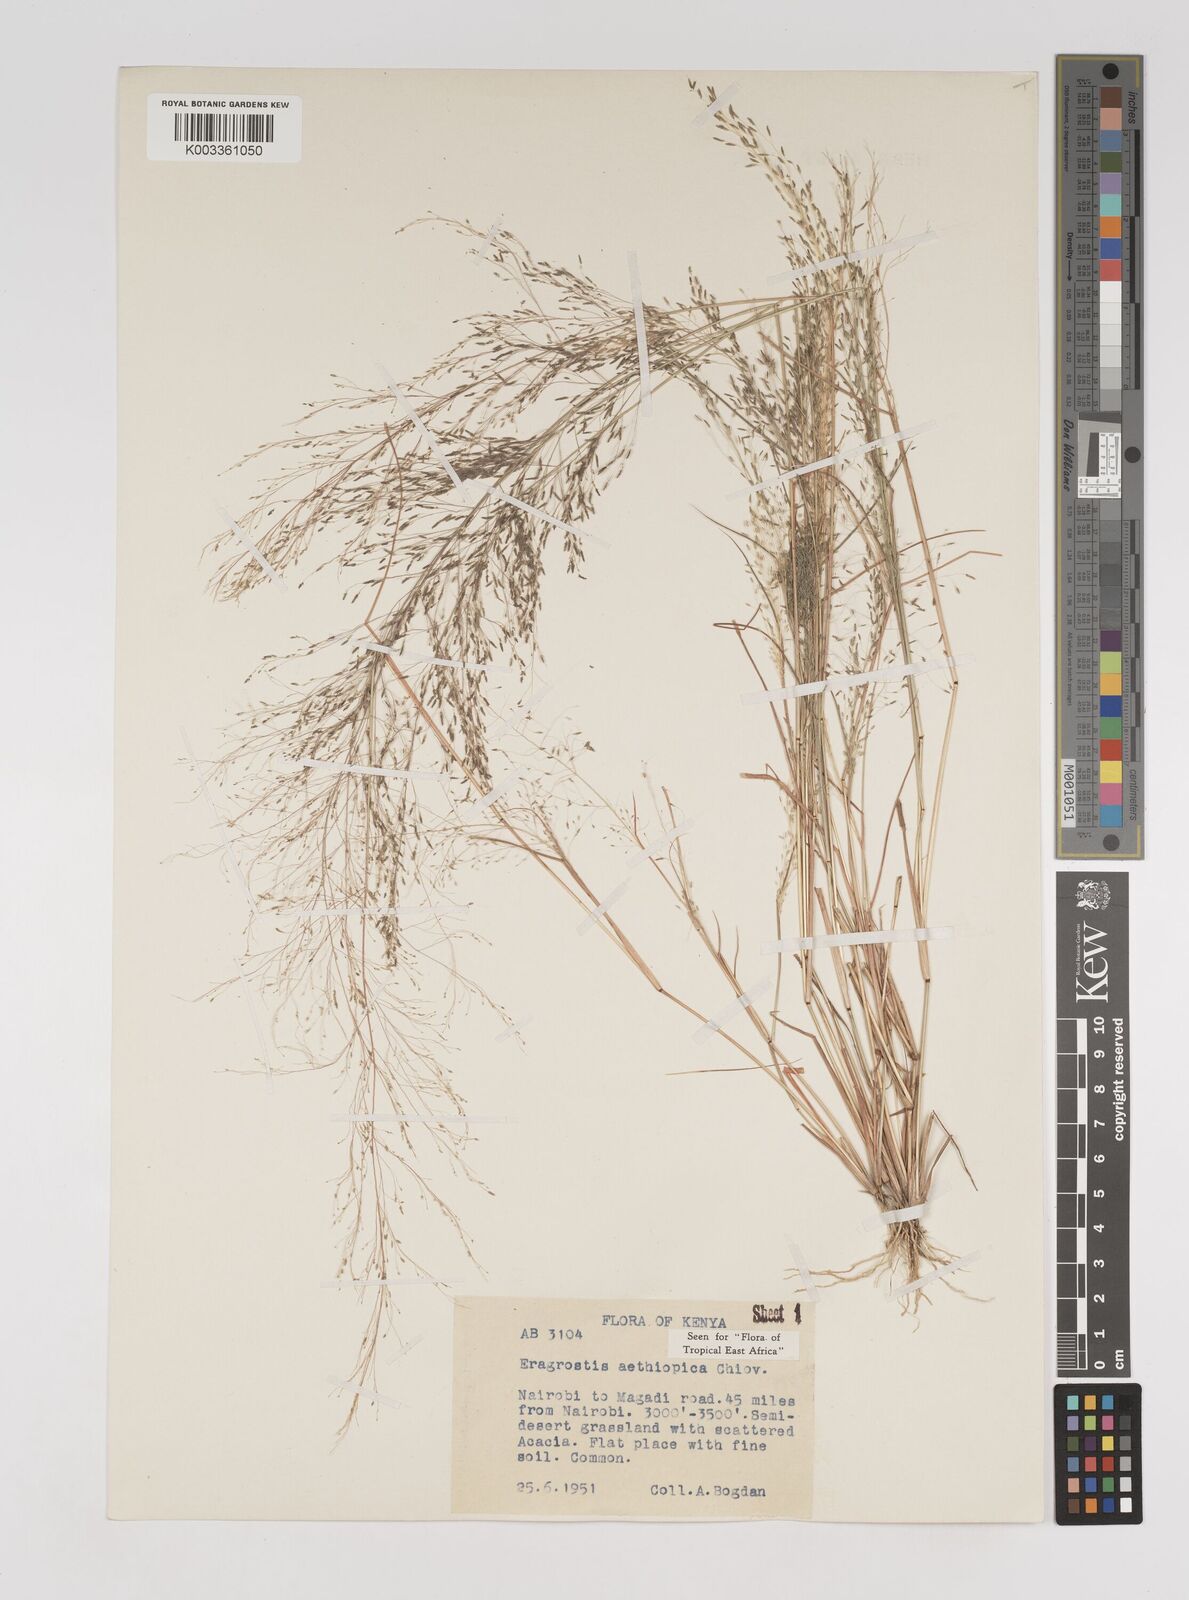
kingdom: Plantae
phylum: Tracheophyta
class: Liliopsida
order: Poales
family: Poaceae
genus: Eragrostis
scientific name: Eragrostis aethiopica
